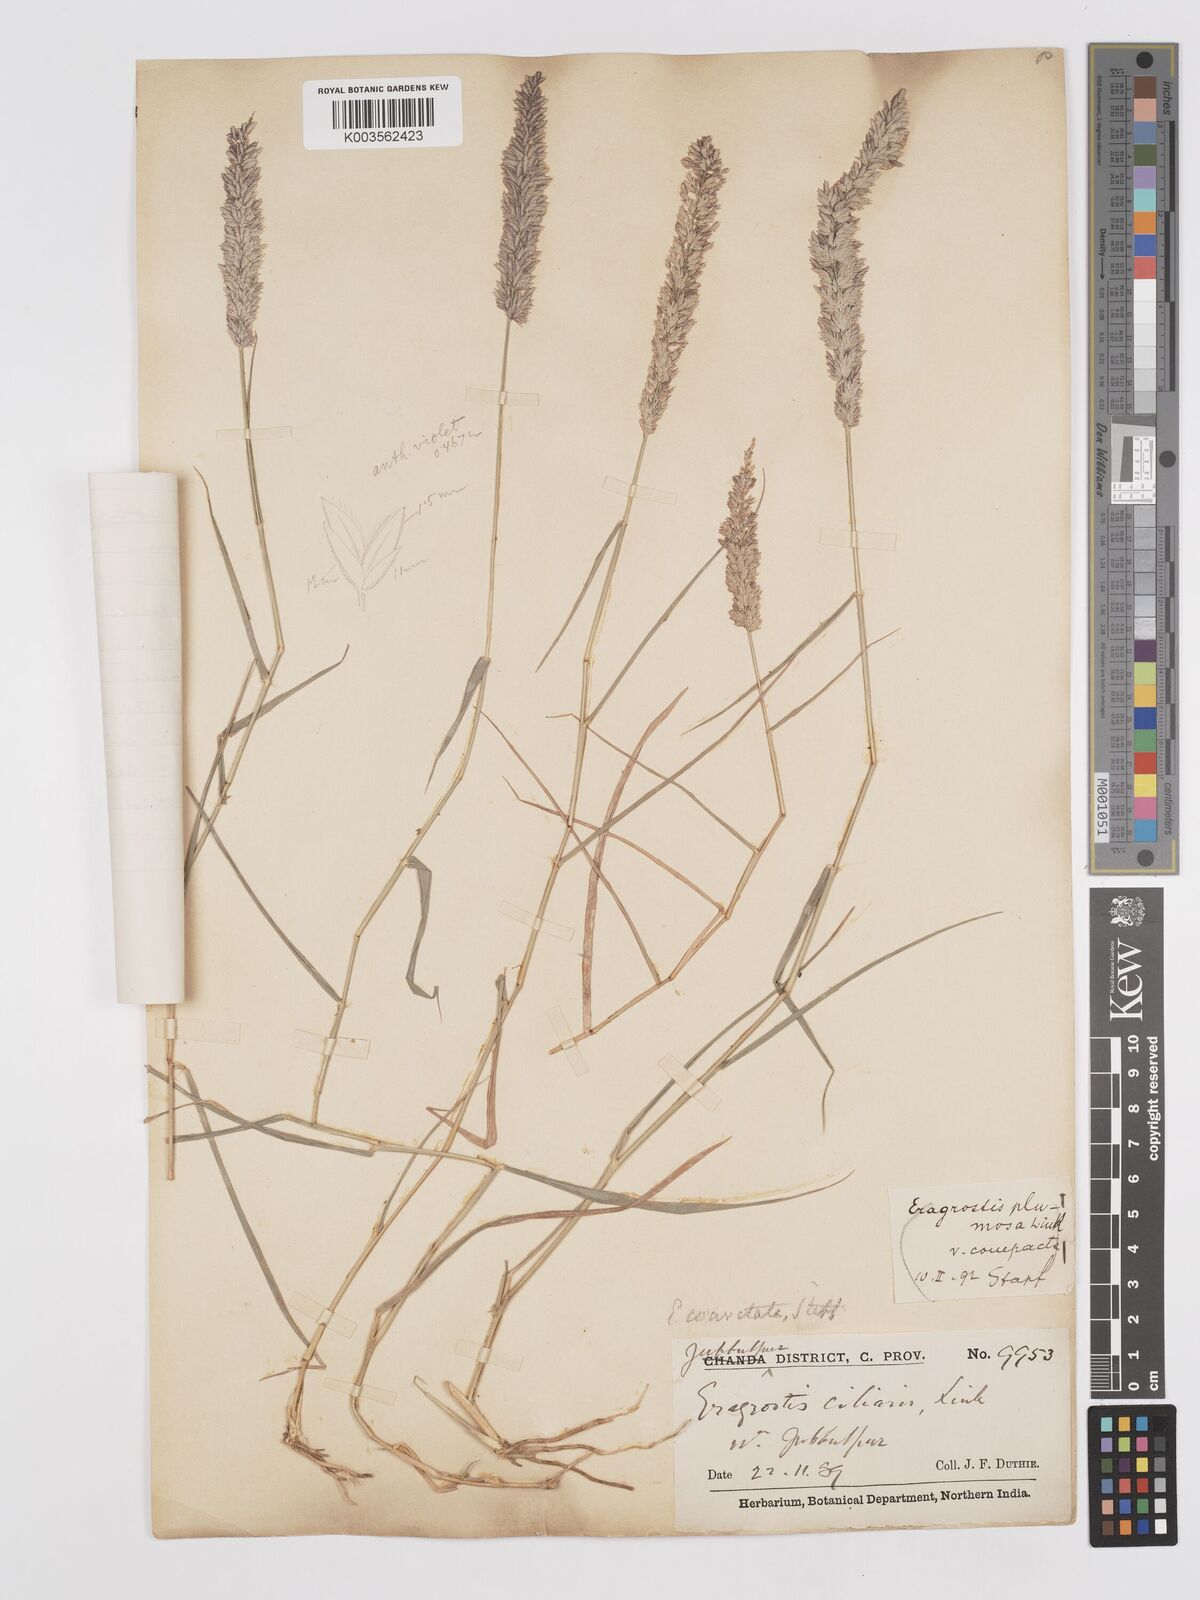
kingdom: Plantae
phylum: Tracheophyta
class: Liliopsida
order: Poales
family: Poaceae
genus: Eragrostis
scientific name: Eragrostis coarctata
